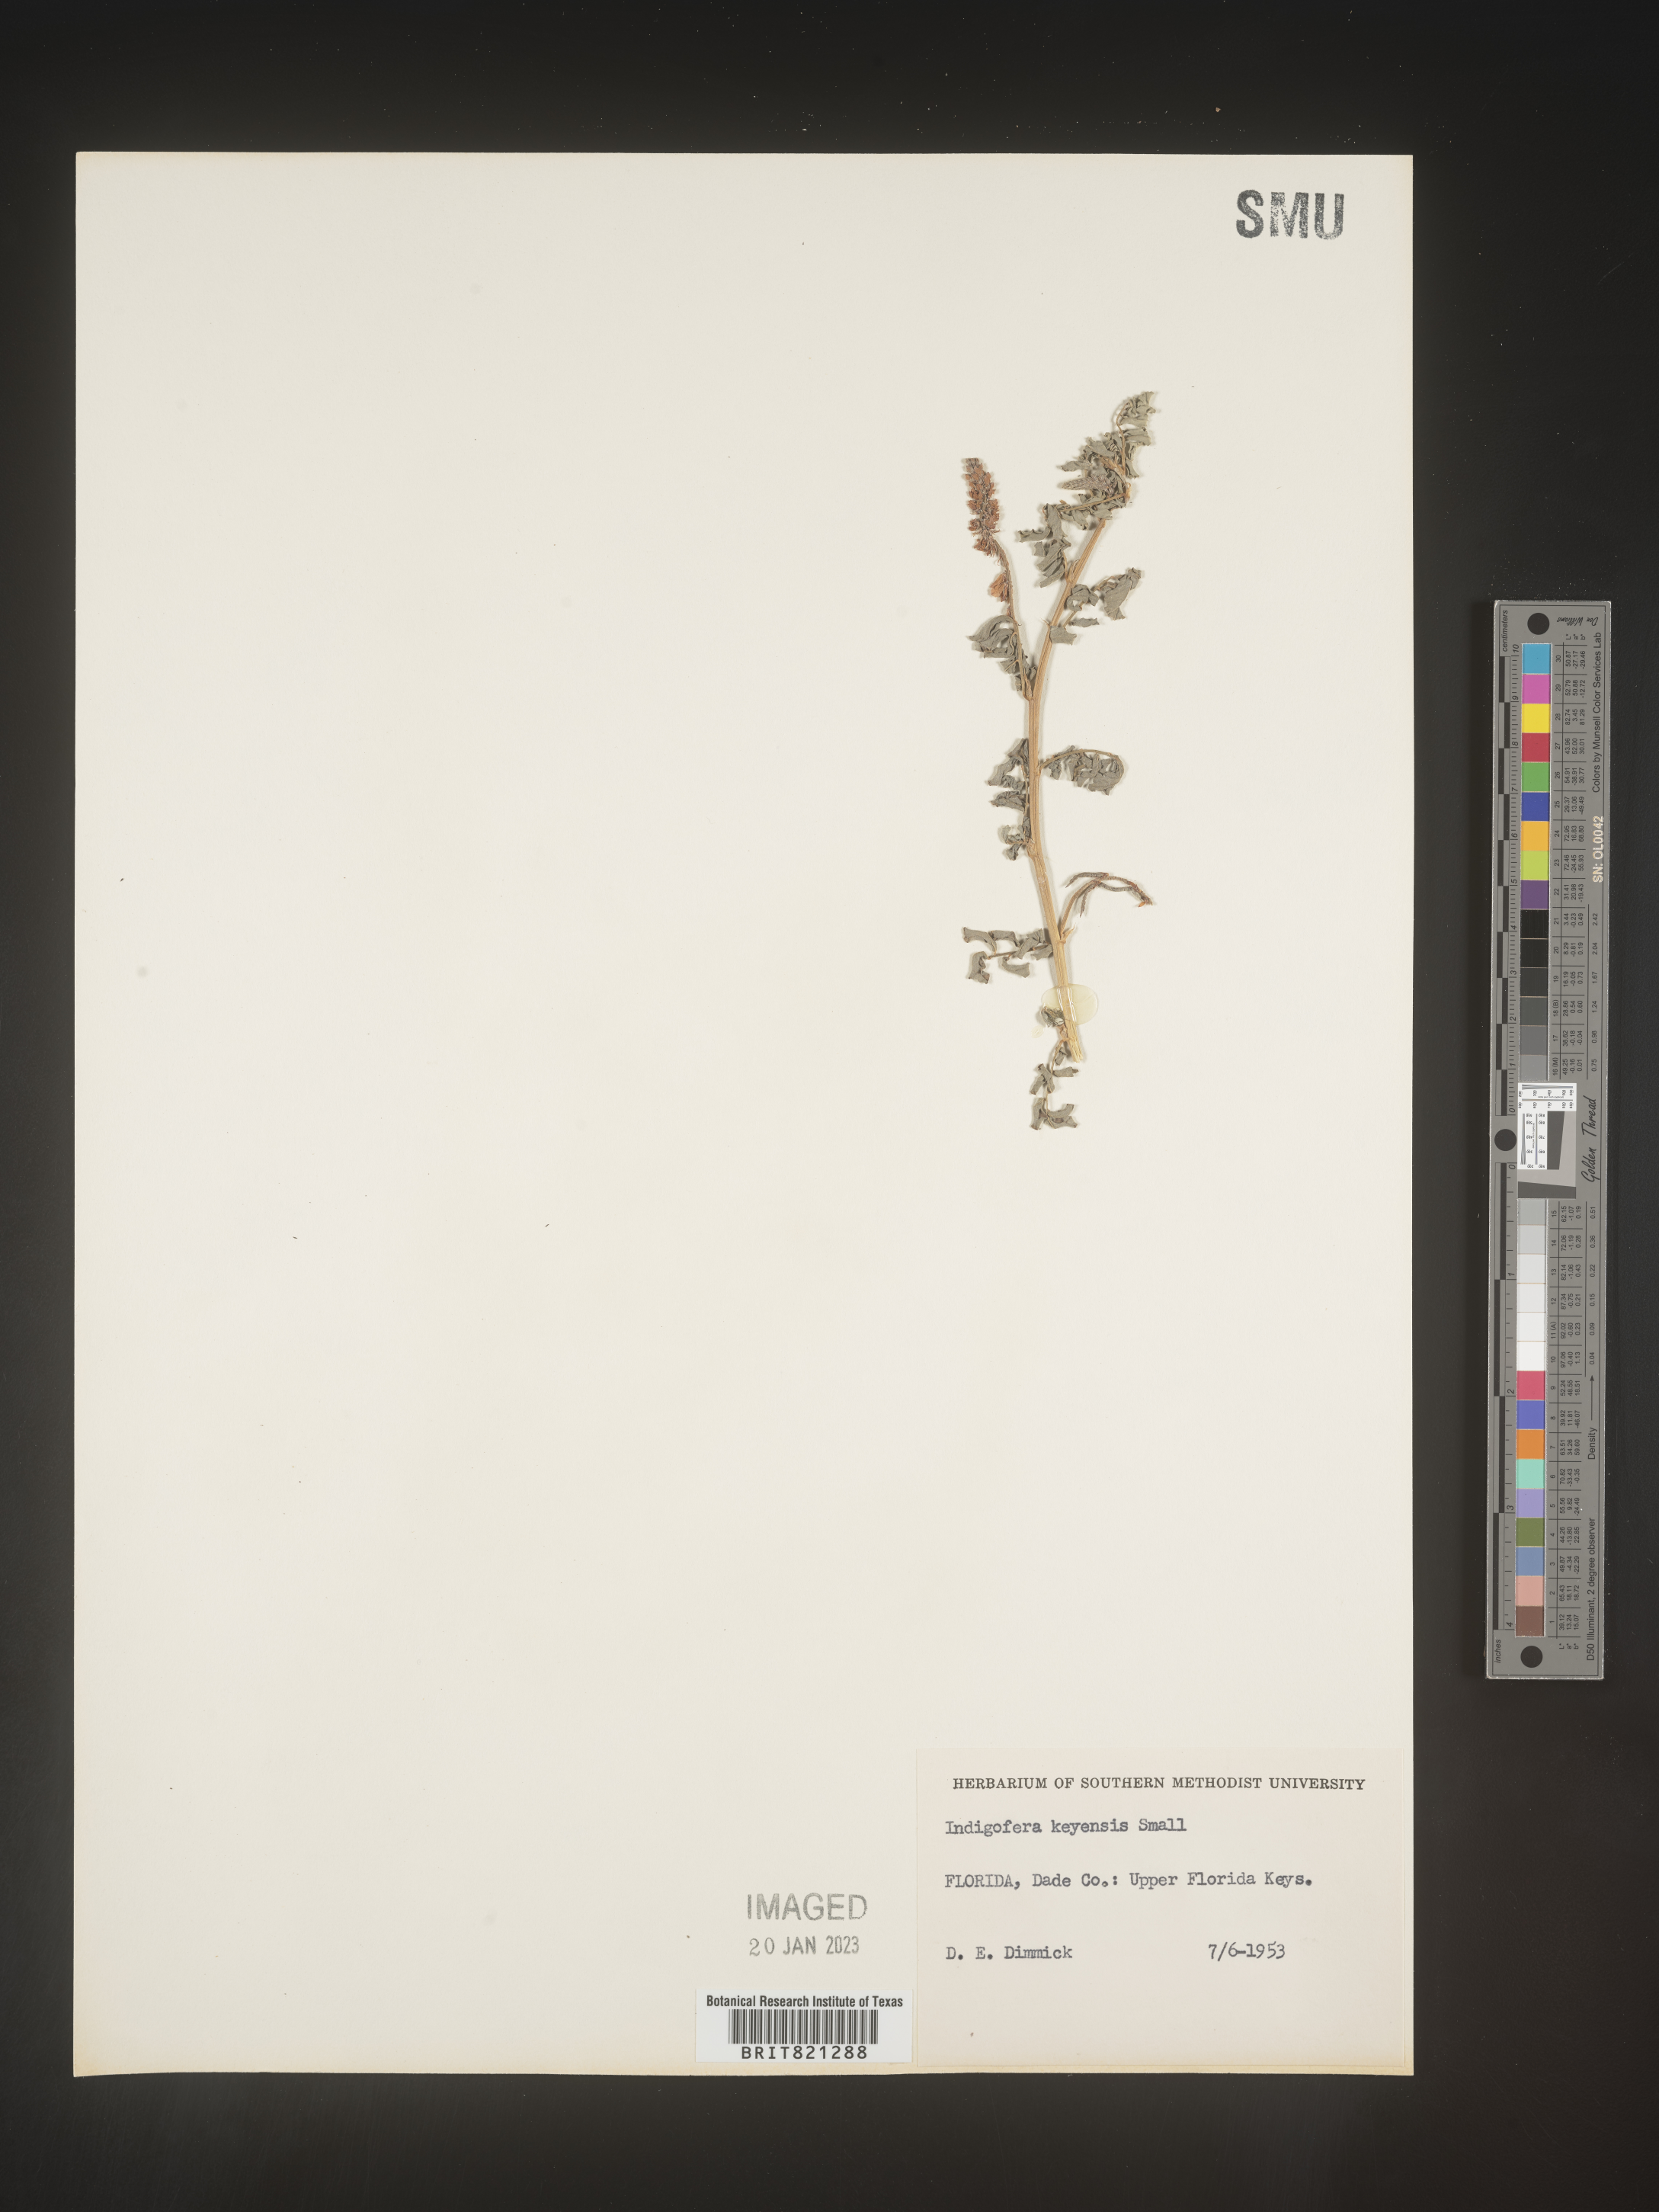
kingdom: Plantae
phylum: Tracheophyta
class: Magnoliopsida
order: Fabales
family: Fabaceae
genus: Indigofera
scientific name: Indigofera
